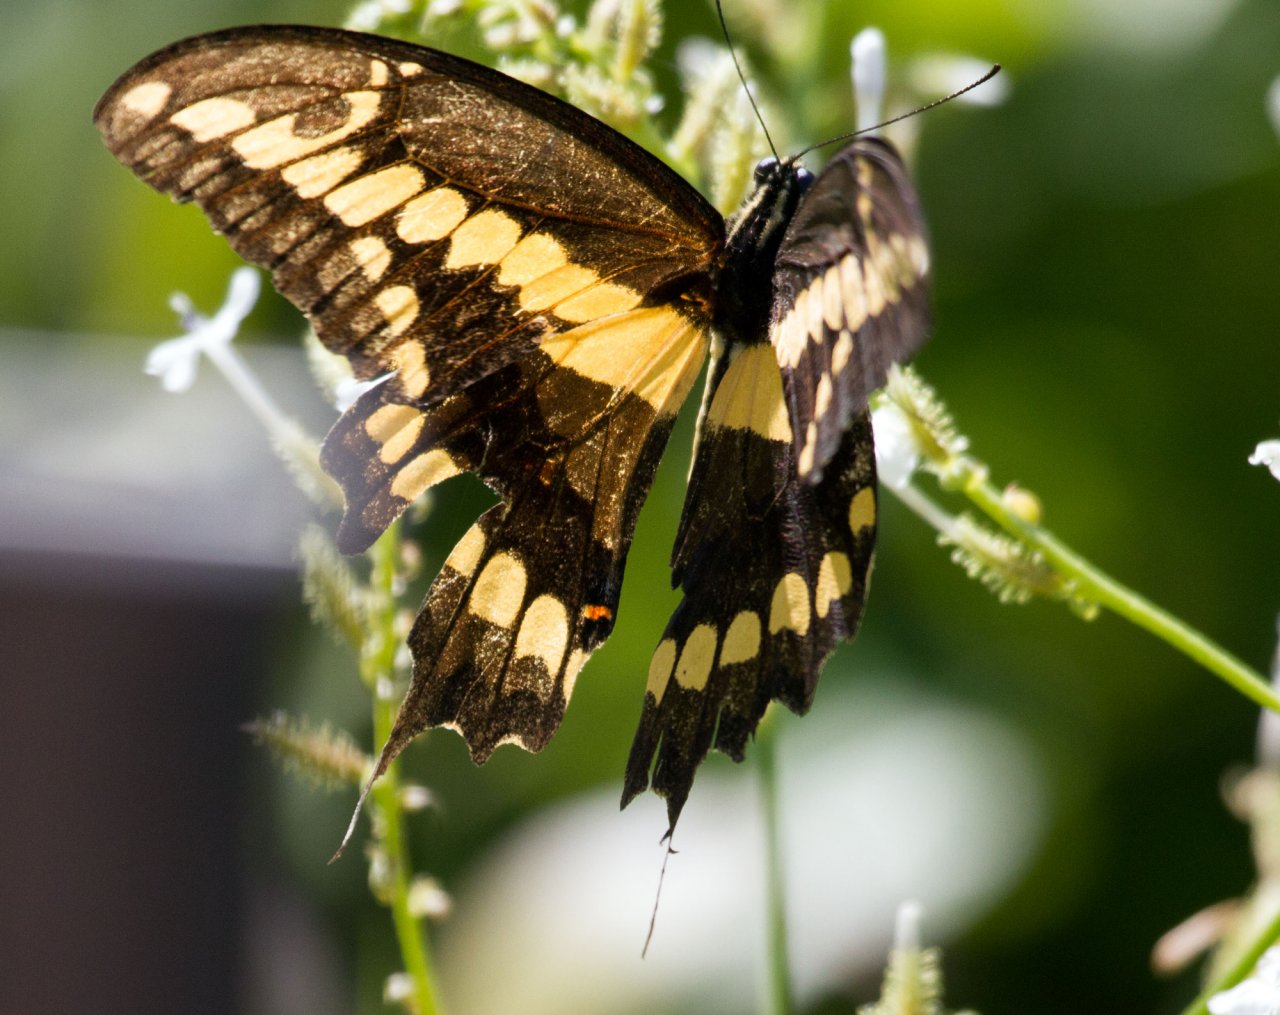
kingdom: Animalia
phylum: Arthropoda
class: Insecta
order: Lepidoptera
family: Papilionidae
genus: Papilio
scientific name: Papilio rumiko
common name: Western Giant Swallowtail
